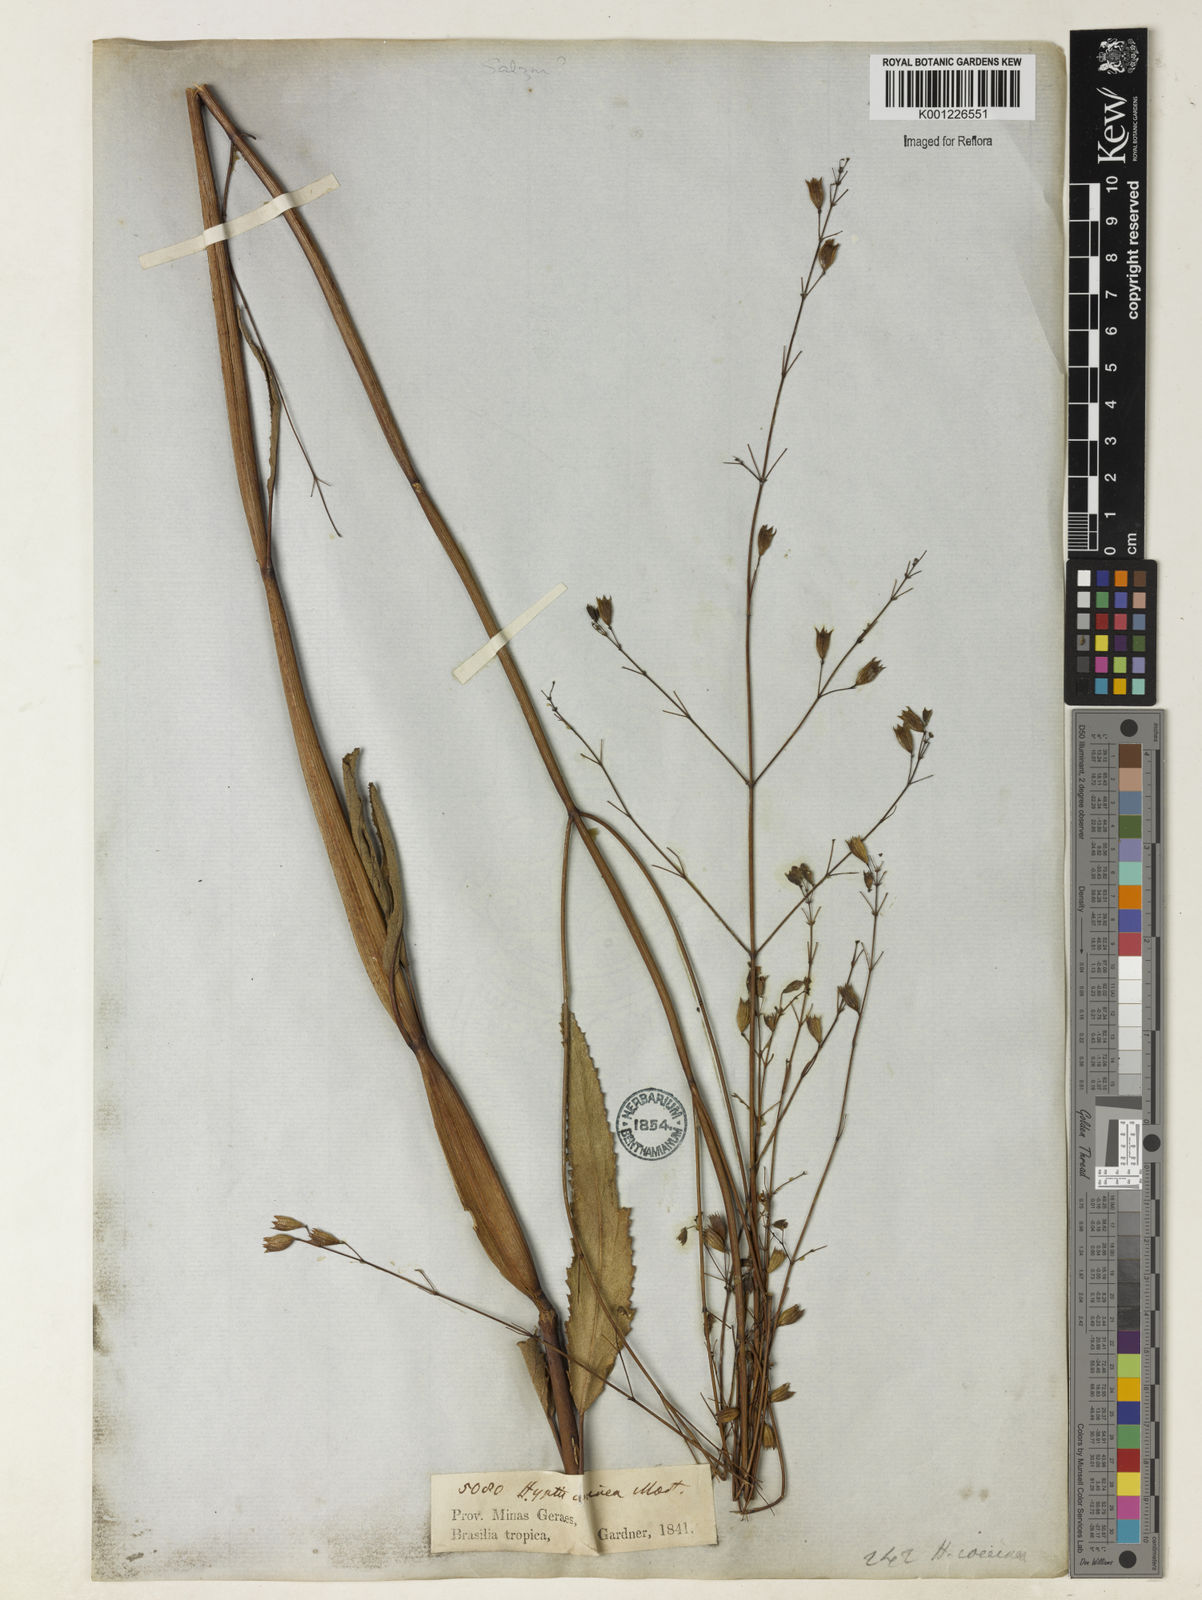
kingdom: Plantae
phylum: Tracheophyta
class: Magnoliopsida
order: Lamiales
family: Lamiaceae
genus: Hypenia
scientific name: Hypenia
